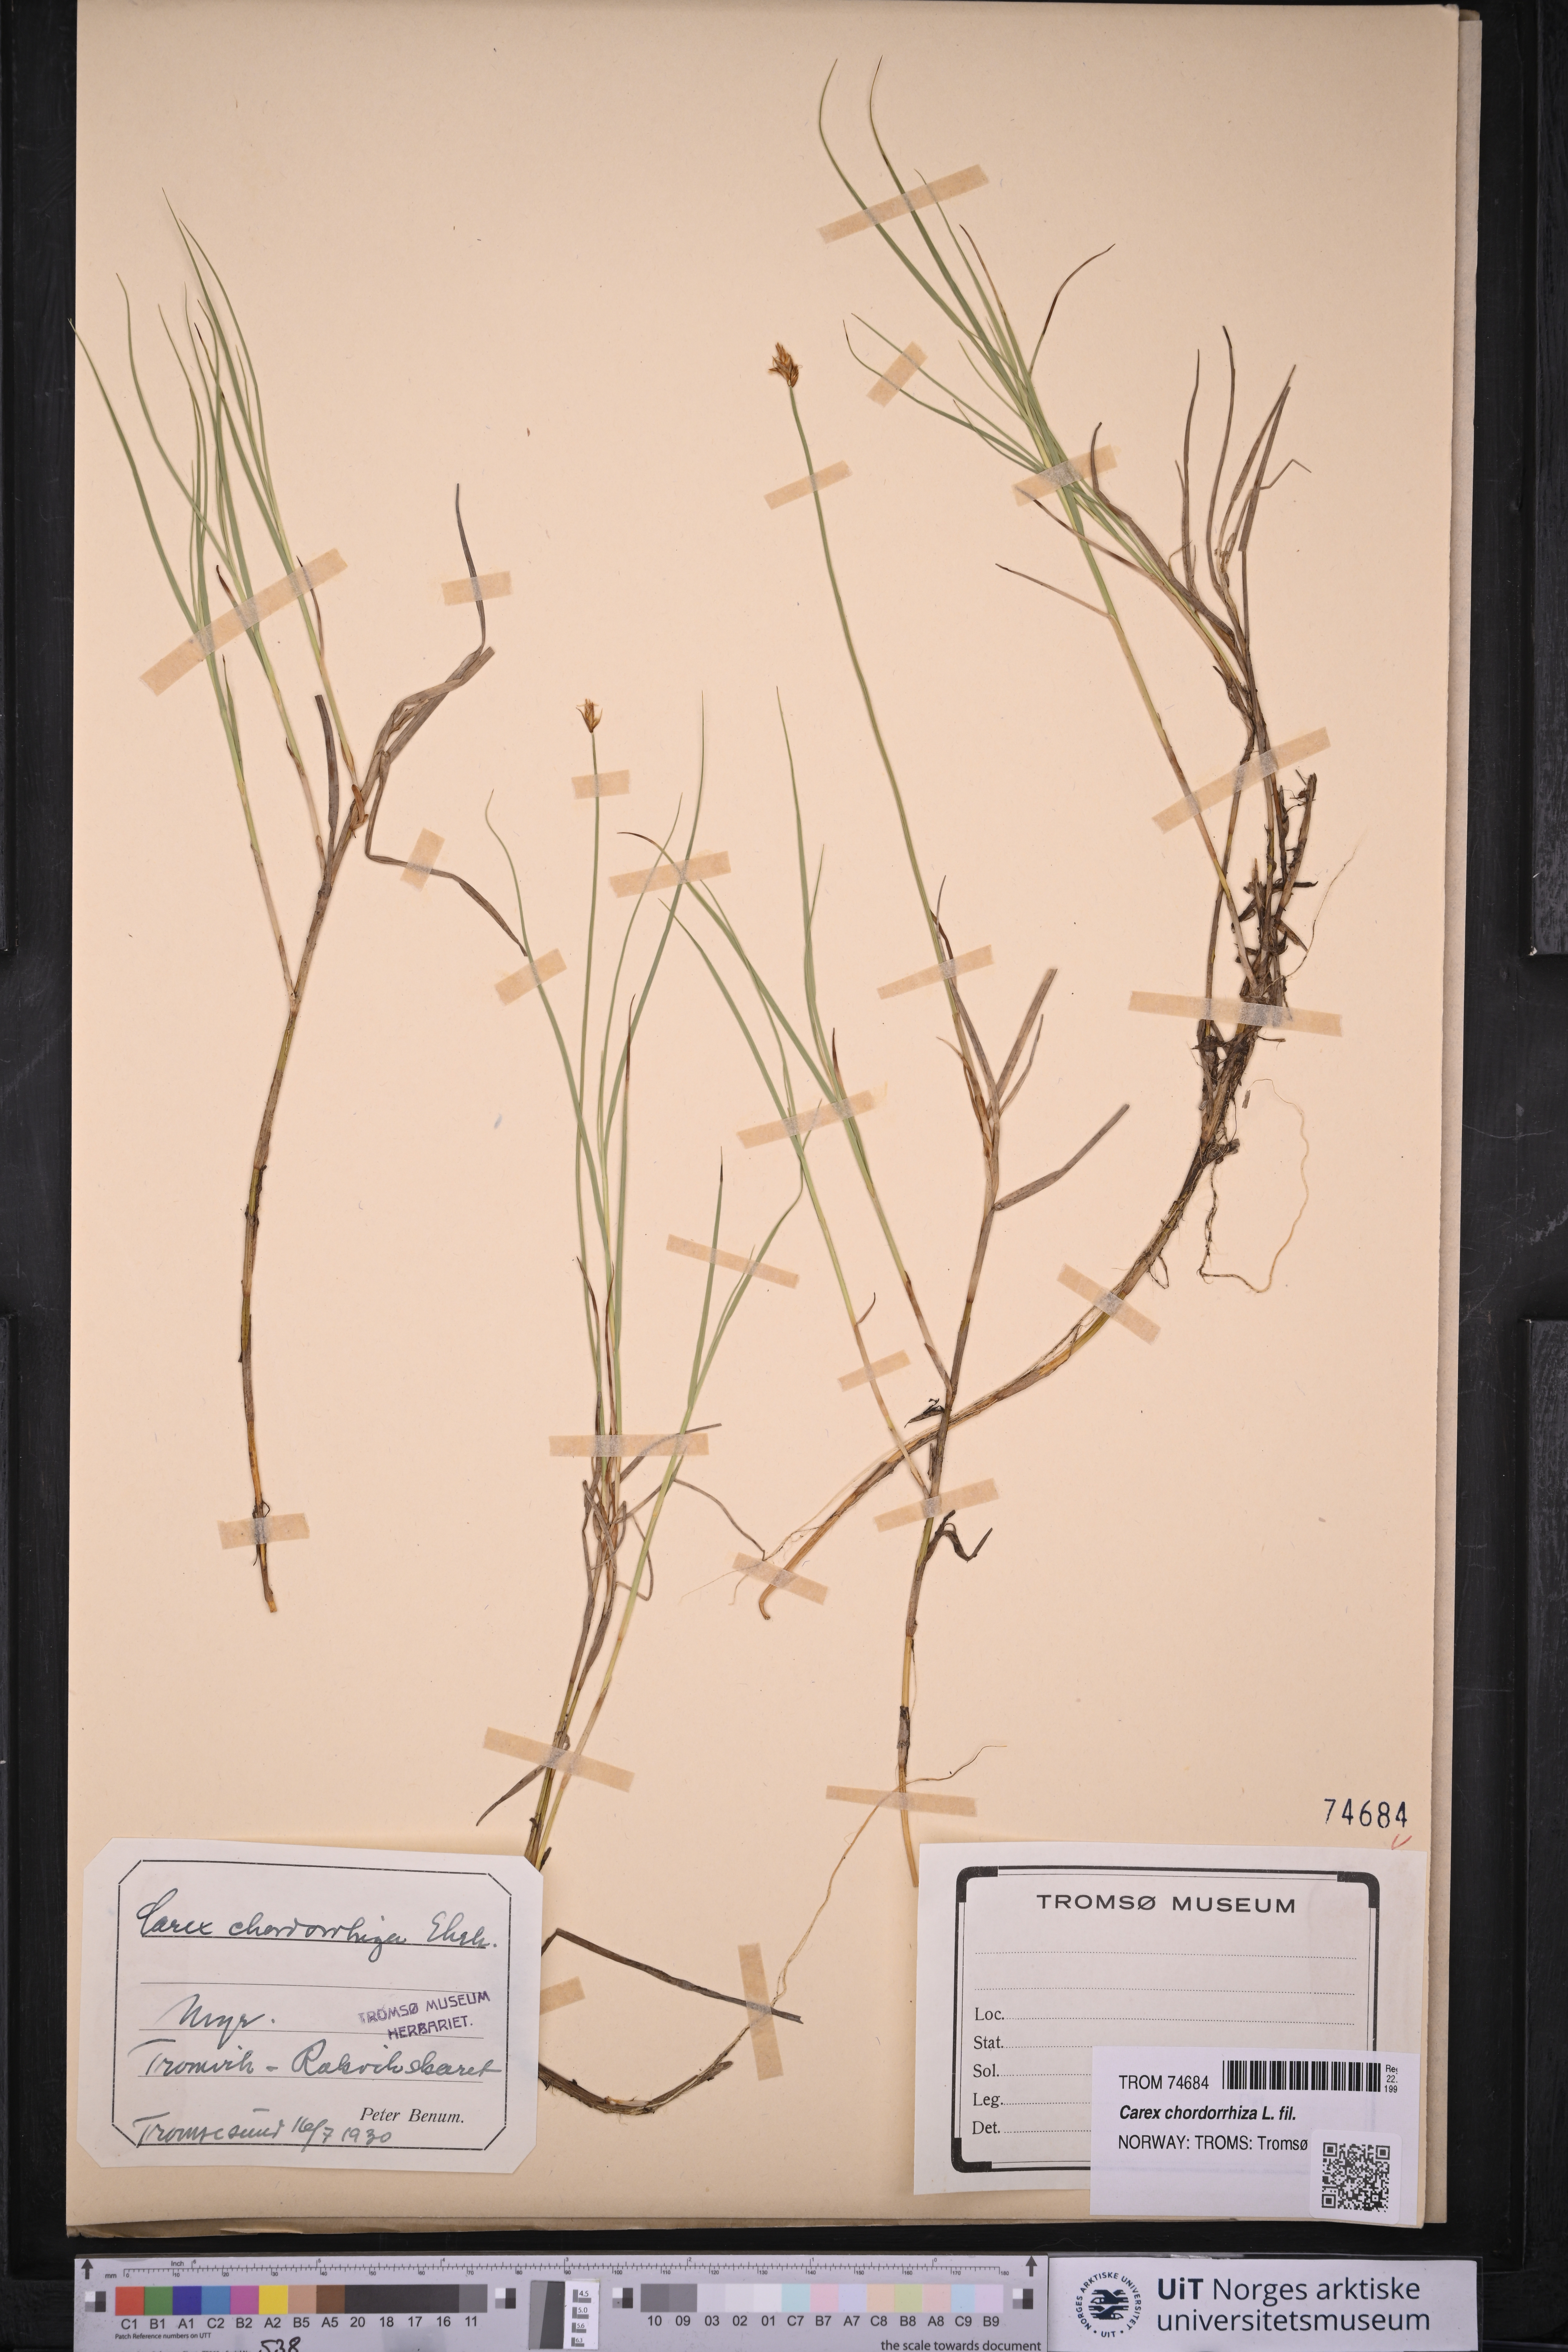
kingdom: Plantae
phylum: Tracheophyta
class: Liliopsida
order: Poales
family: Cyperaceae
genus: Carex
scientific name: Carex chordorrhiza
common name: String sedge
